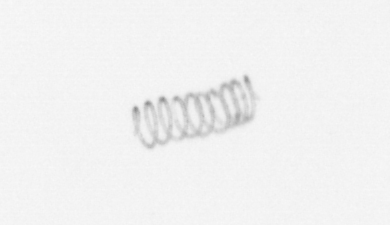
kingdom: Chromista
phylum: Ochrophyta
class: Bacillariophyceae
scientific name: Bacillariophyceae
